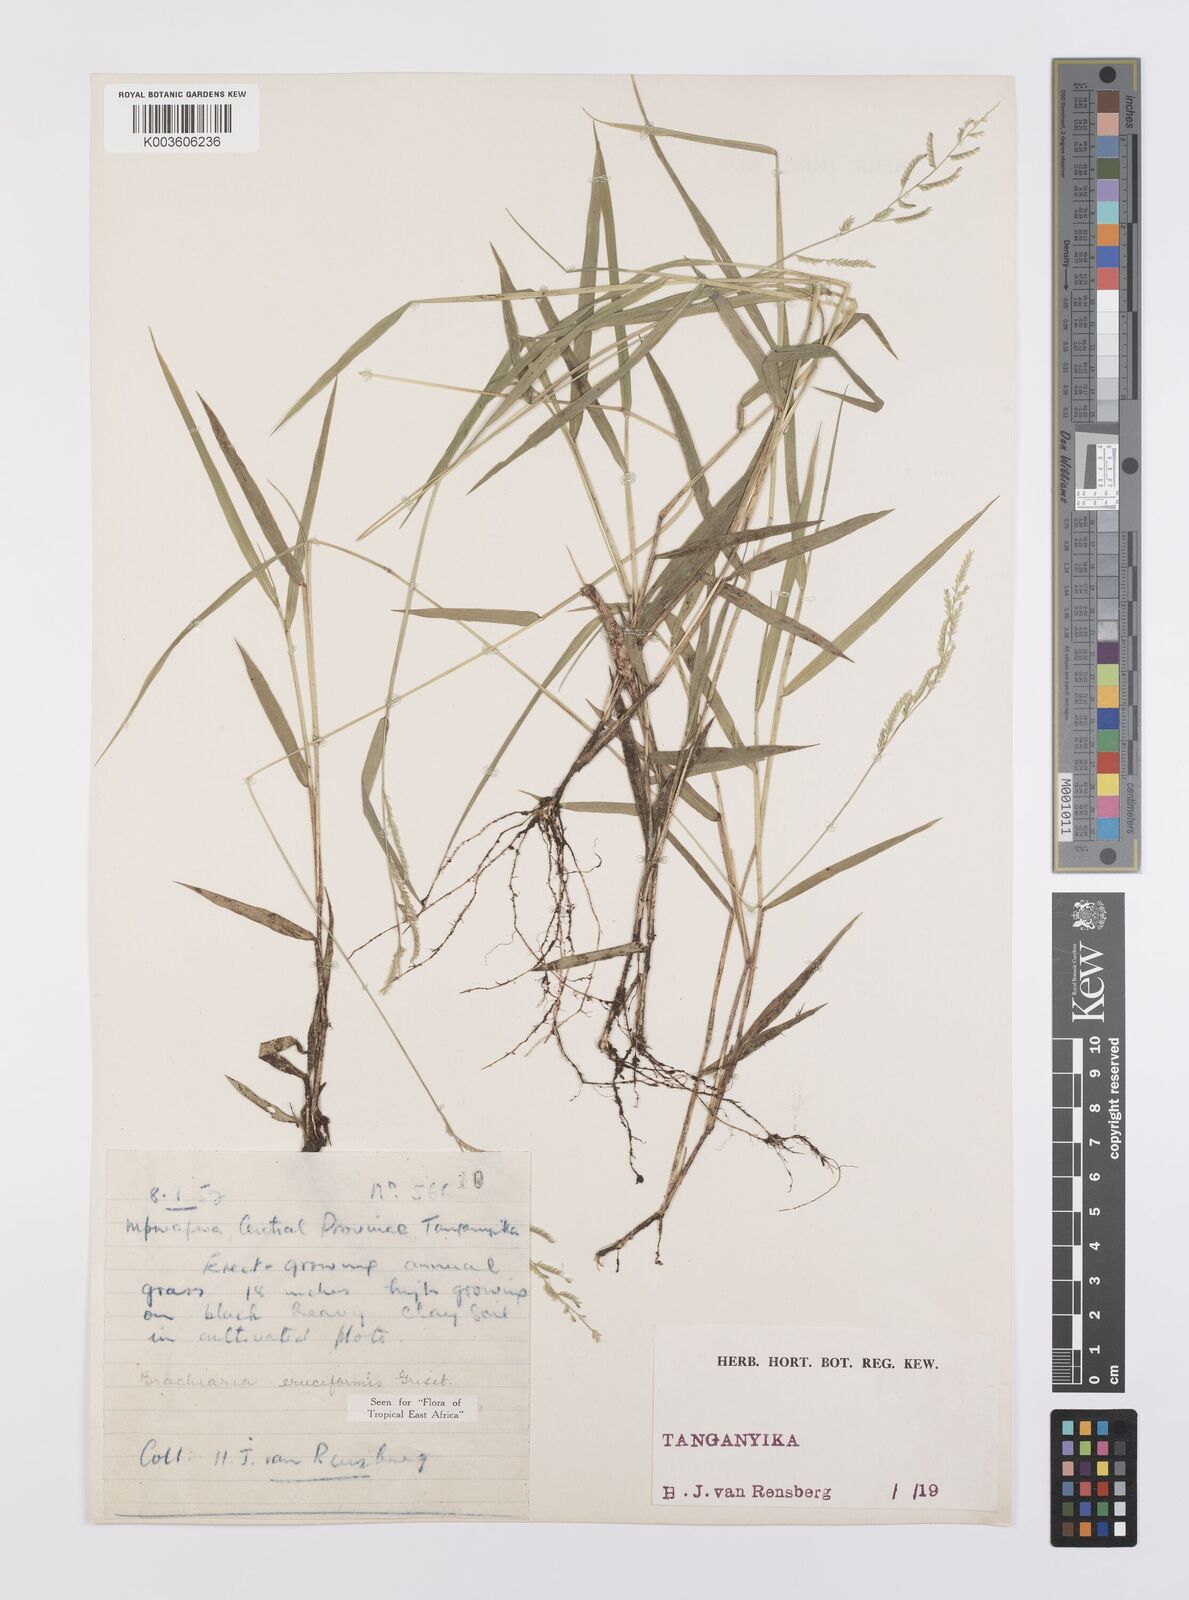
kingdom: Plantae
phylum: Tracheophyta
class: Liliopsida
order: Poales
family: Poaceae
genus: Moorochloa
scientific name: Moorochloa eruciformis
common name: Sweet signalgrass
